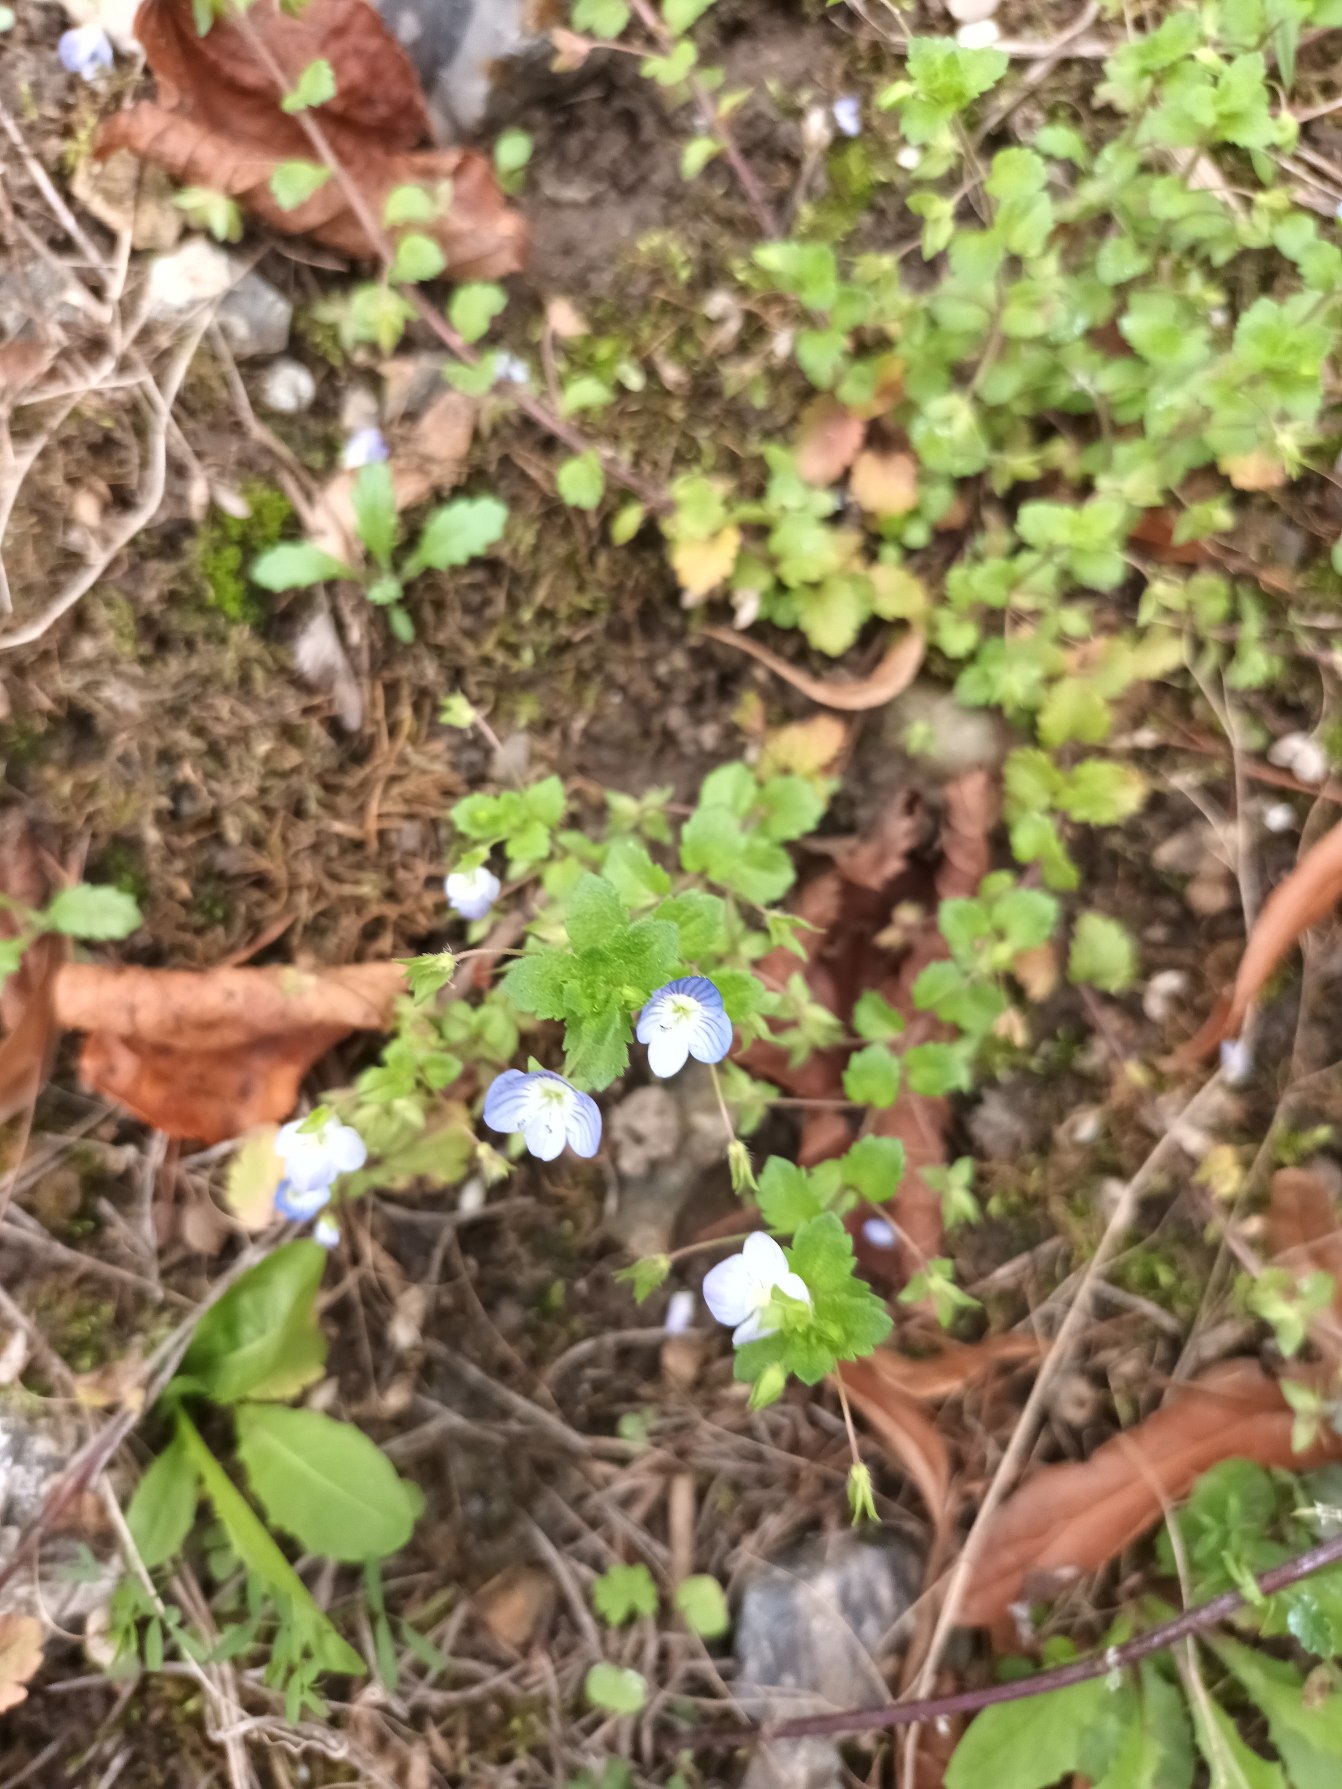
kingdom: Plantae
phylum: Tracheophyta
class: Magnoliopsida
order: Lamiales
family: Plantaginaceae
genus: Veronica
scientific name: Veronica persica
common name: Storkronet ærenpris
